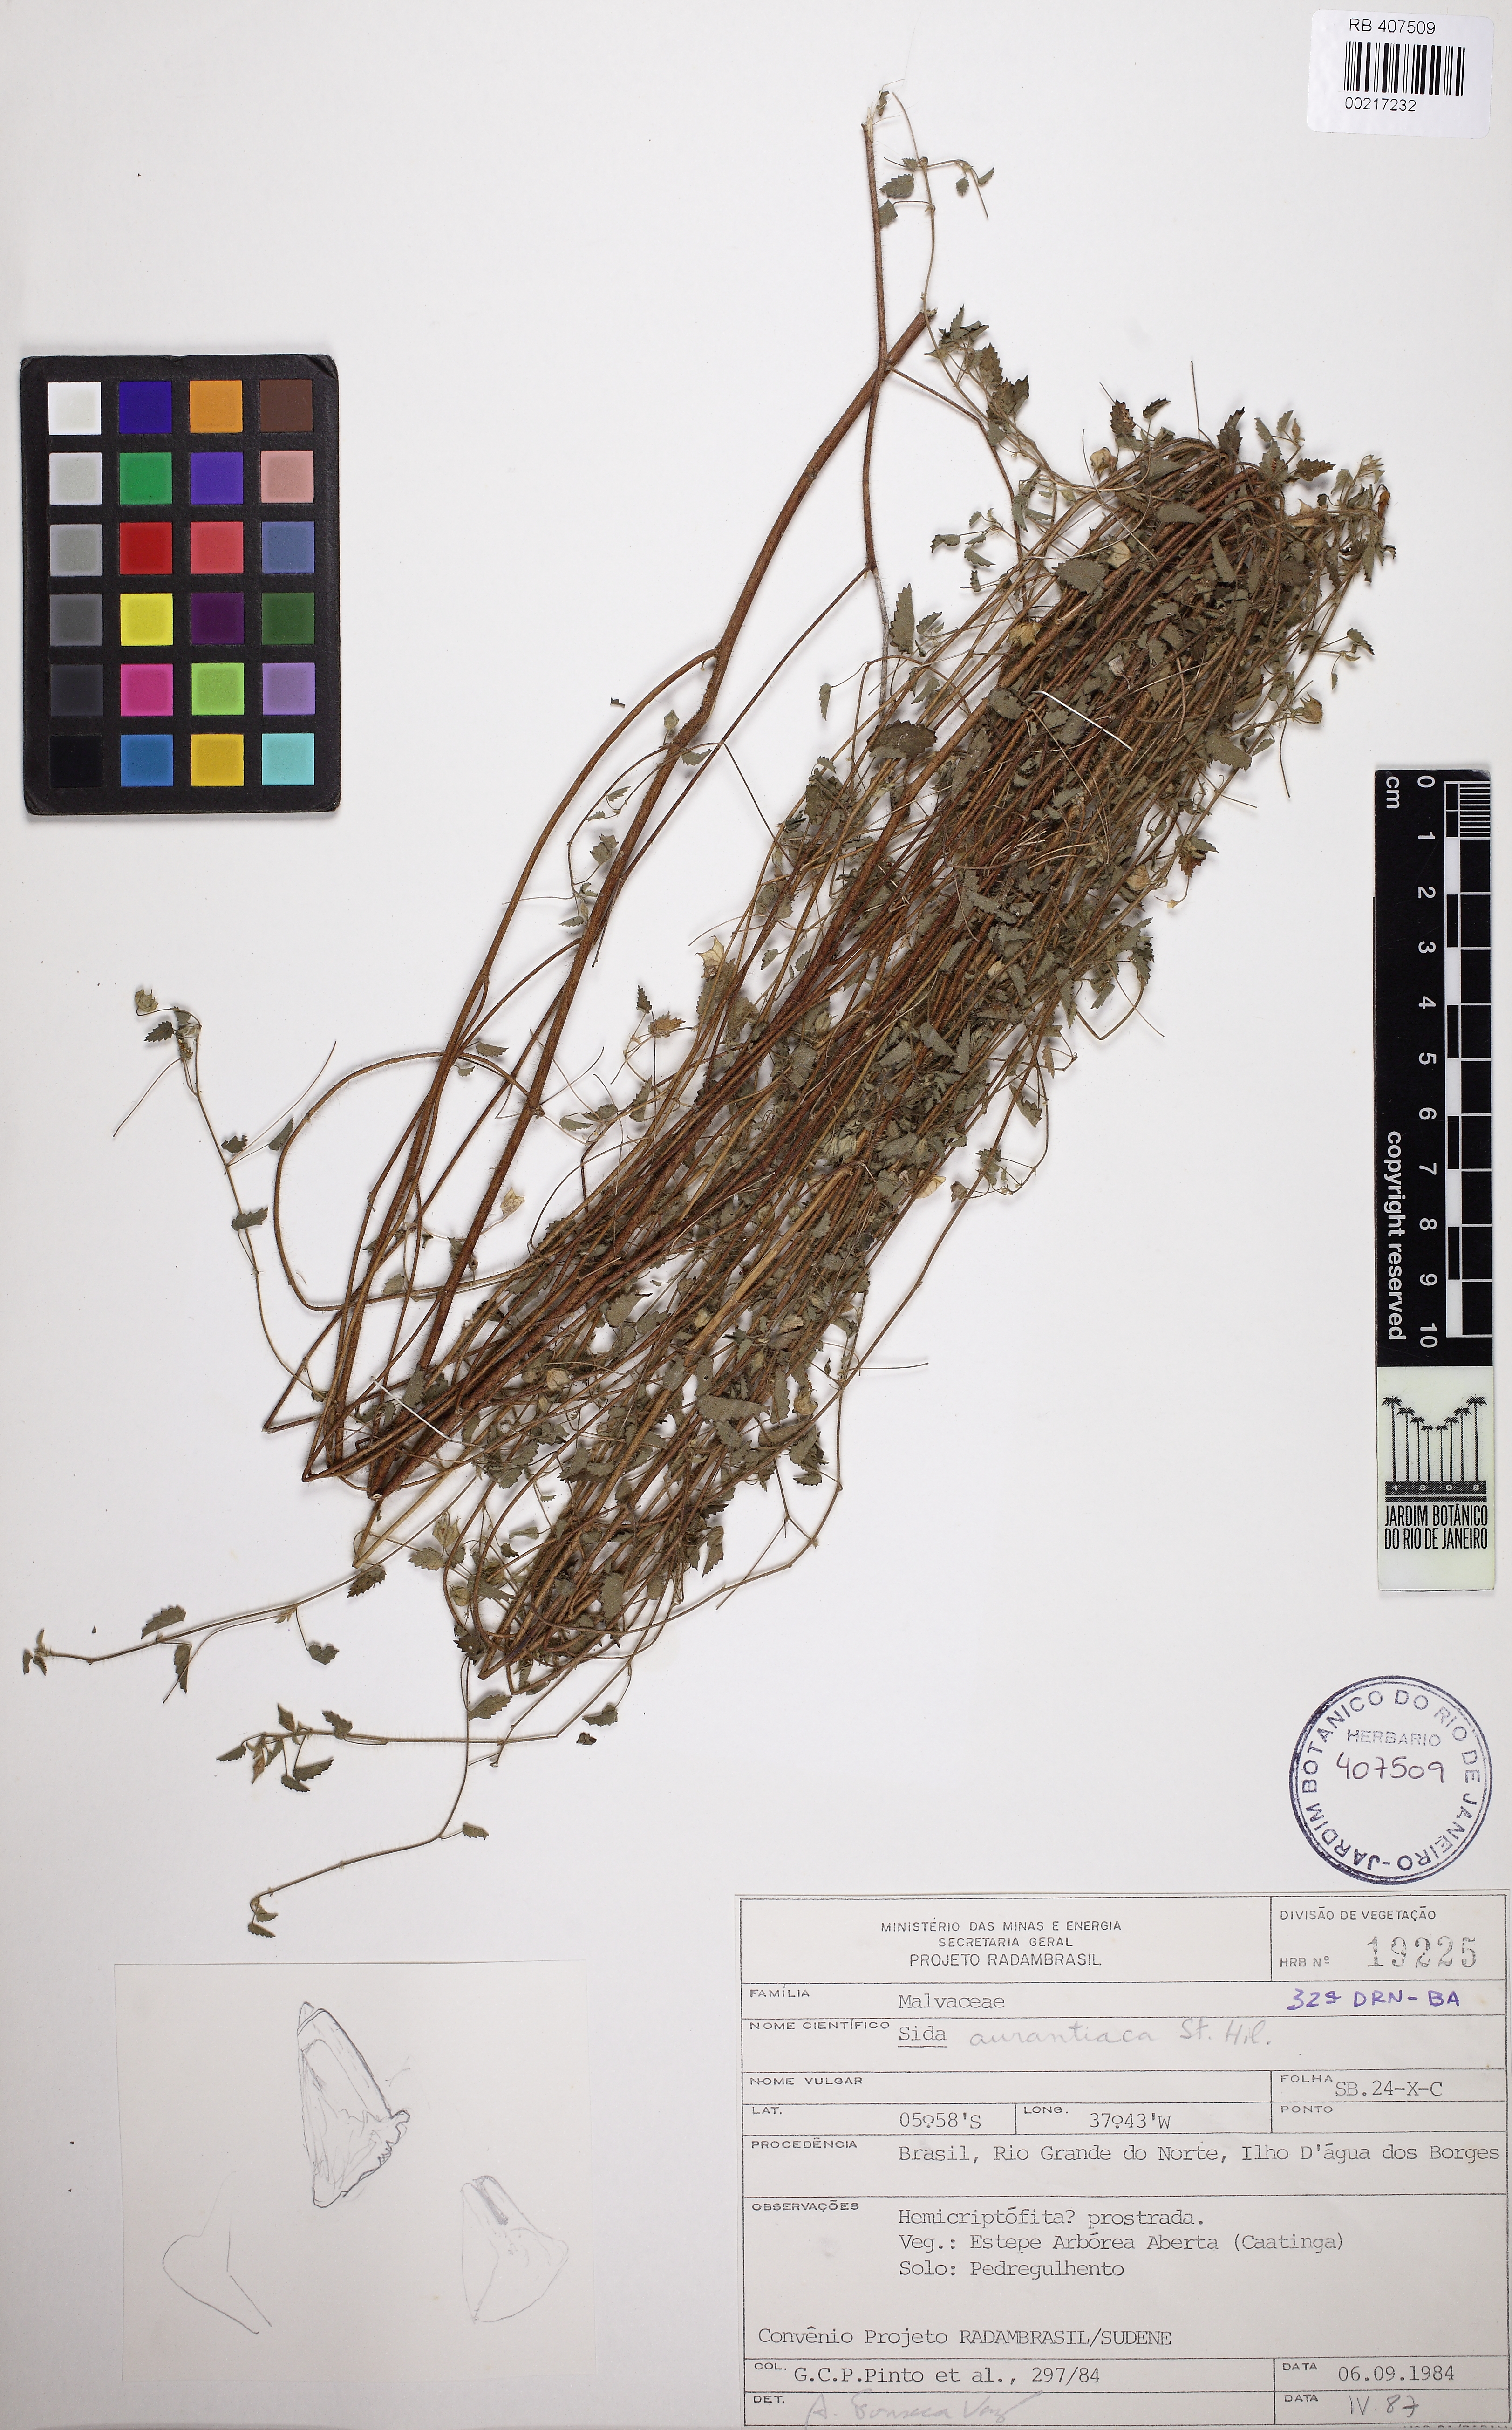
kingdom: Plantae
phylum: Tracheophyta
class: Magnoliopsida
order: Malvales
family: Malvaceae
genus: Sida
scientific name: Sida aurantiaca
